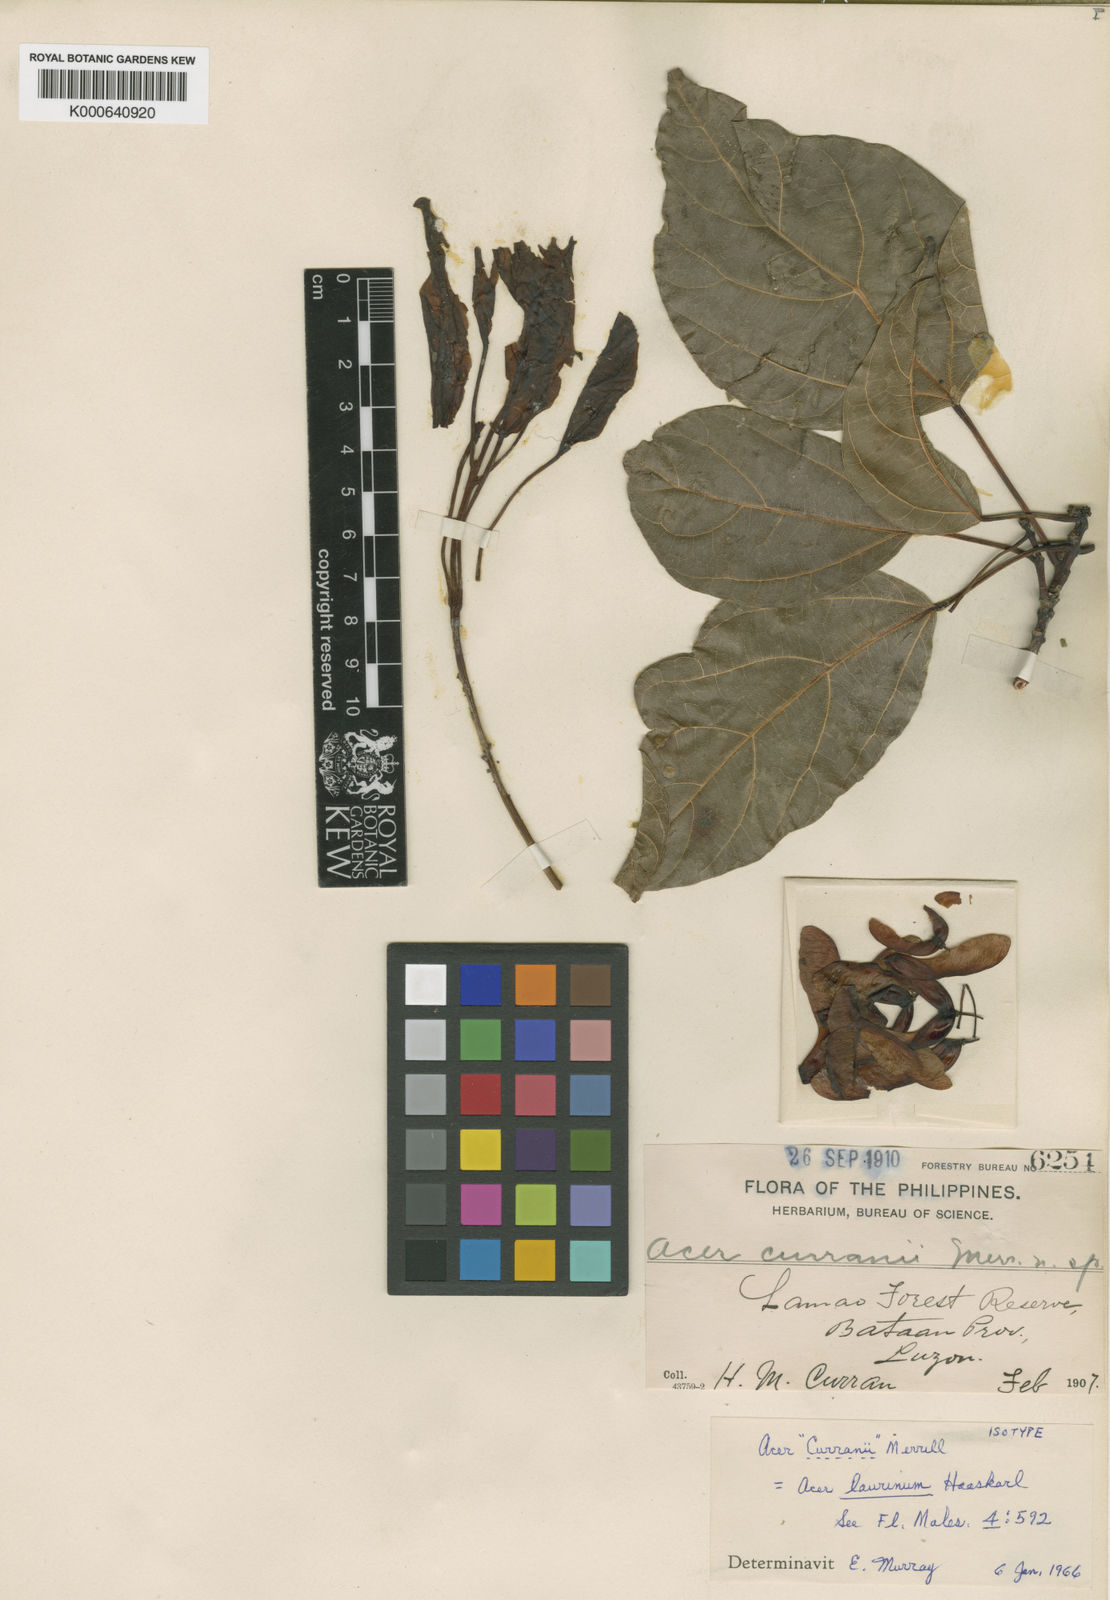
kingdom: Plantae
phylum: Tracheophyta
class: Magnoliopsida
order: Sapindales
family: Sapindaceae
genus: Acer
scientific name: Acer laurinum
